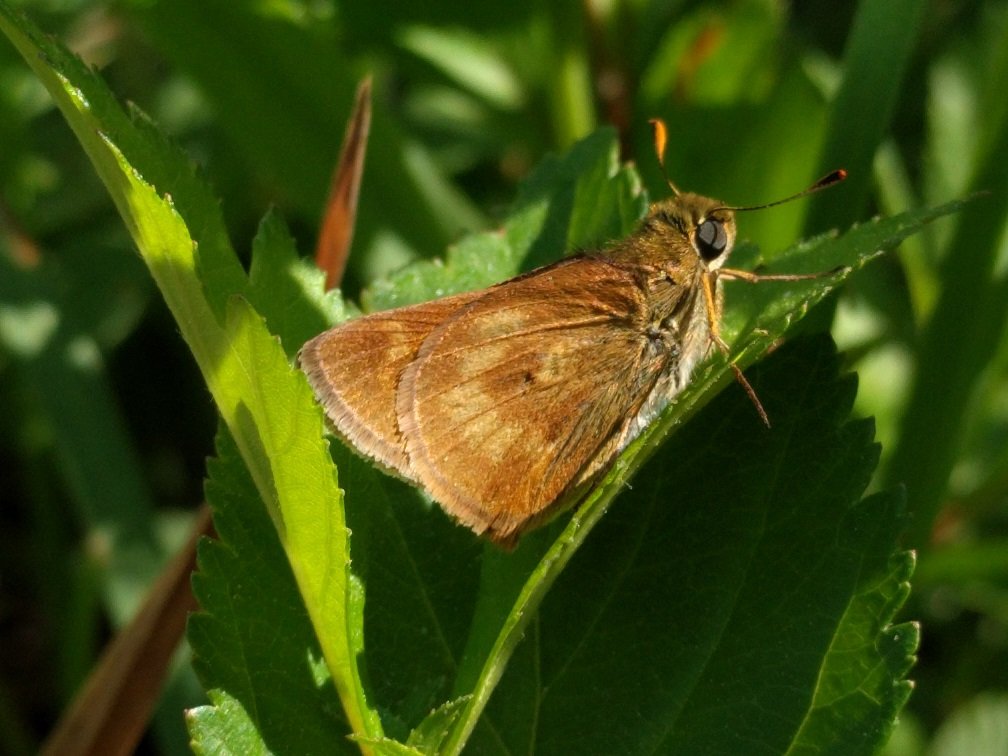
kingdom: Animalia
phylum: Arthropoda
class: Insecta
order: Lepidoptera
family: Hesperiidae
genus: Polites
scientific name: Polites
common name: Long Dash Skipper
